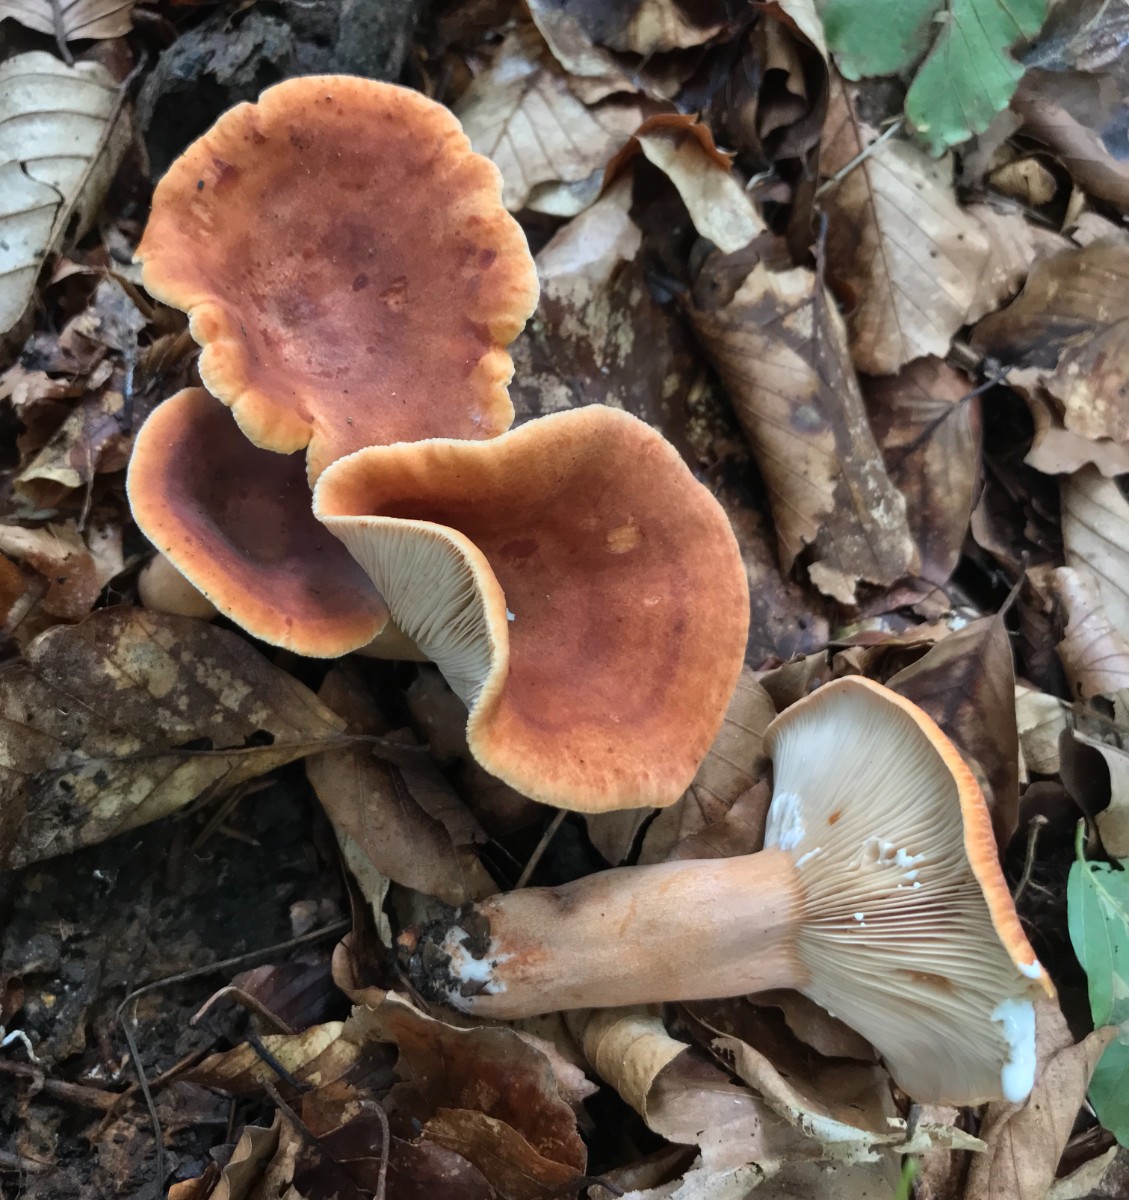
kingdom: Fungi
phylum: Basidiomycota
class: Agaricomycetes
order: Russulales
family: Russulaceae
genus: Lactarius
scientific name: Lactarius fulvissimus
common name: ræve-mælkehat
